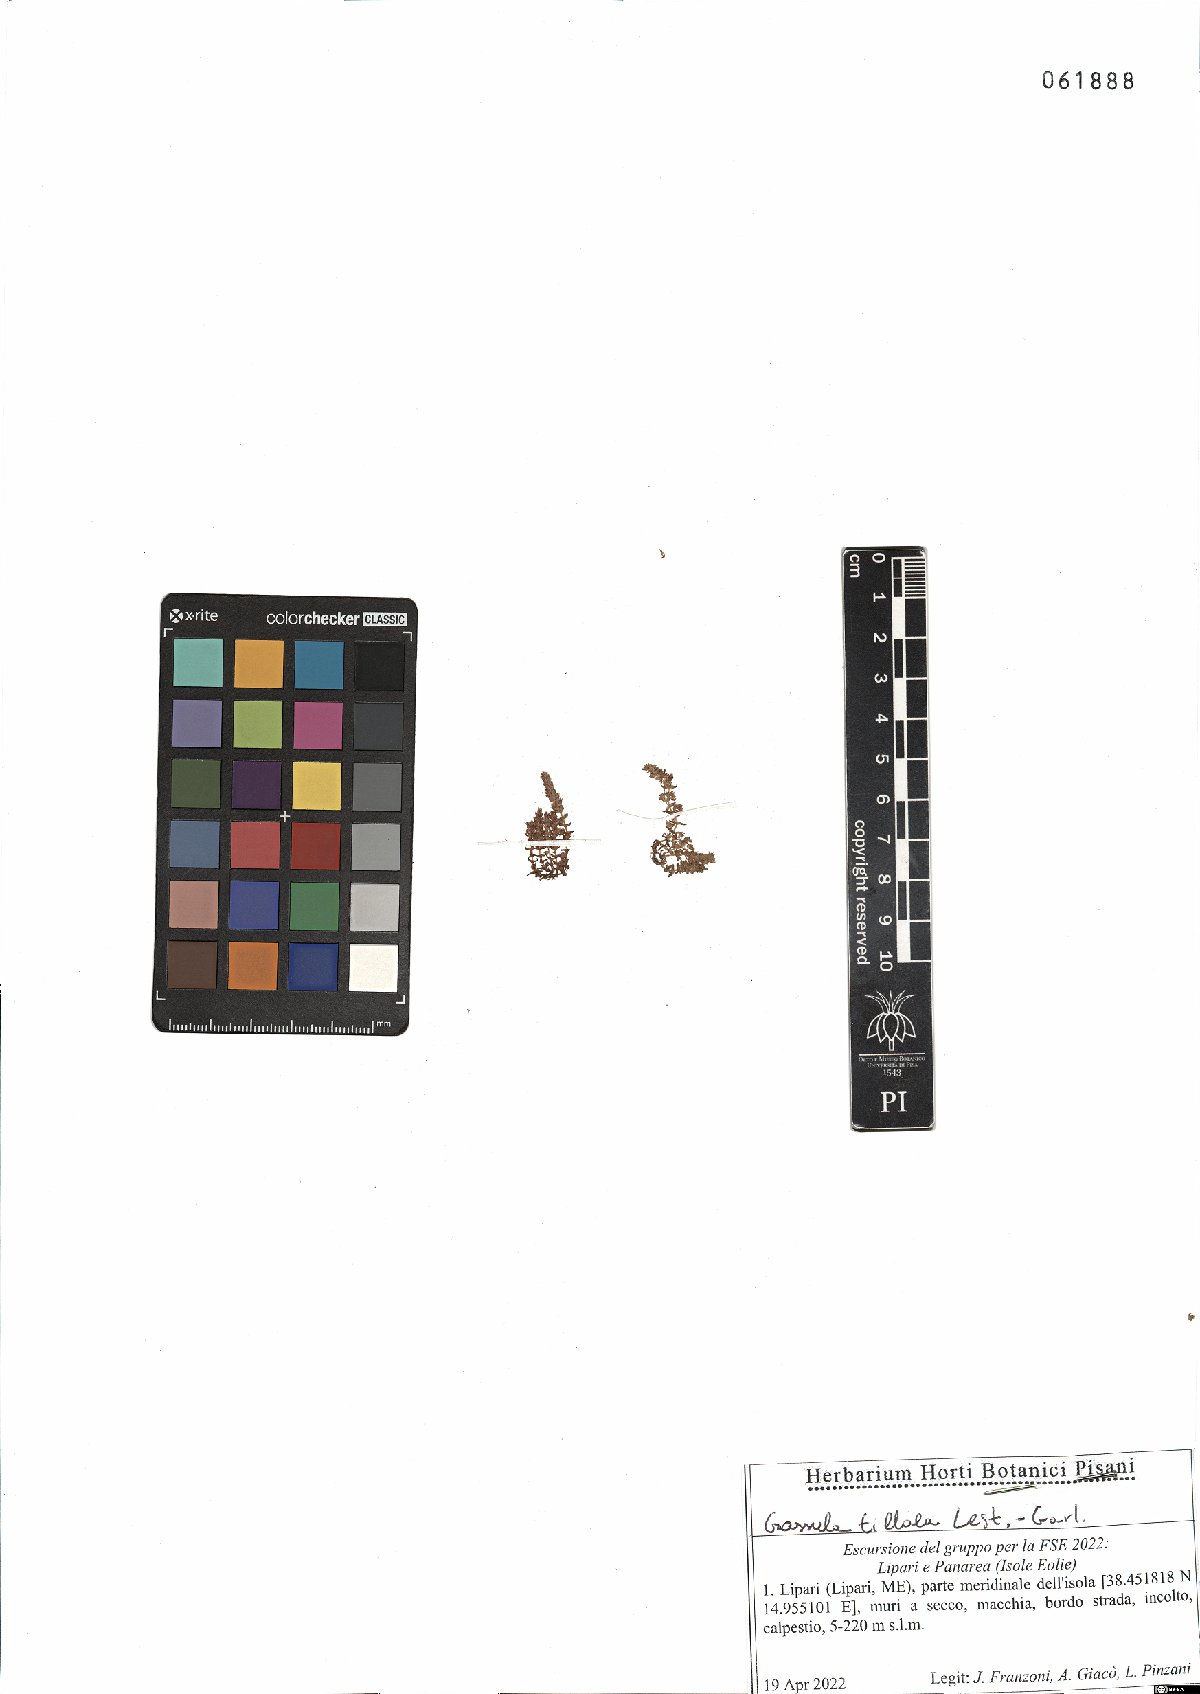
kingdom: Plantae
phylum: Tracheophyta
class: Magnoliopsida
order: Saxifragales
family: Crassulaceae
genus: Crassula
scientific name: Crassula tillaea
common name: Mossy stonecrop
